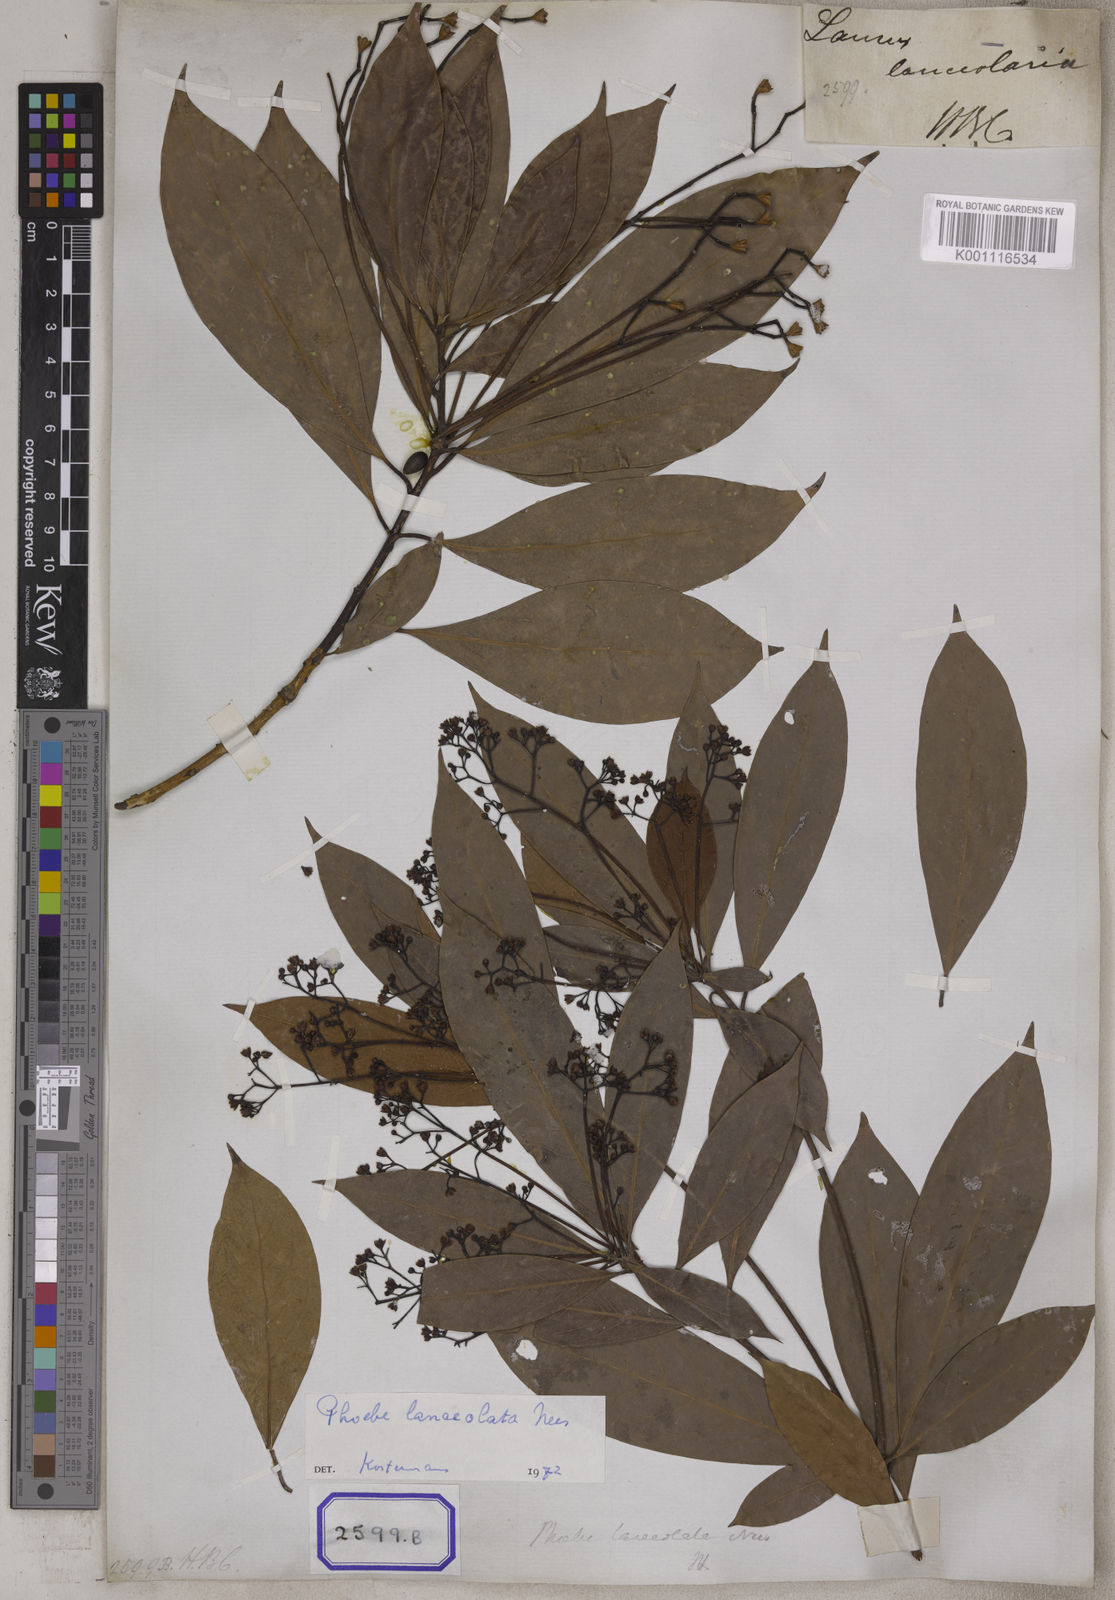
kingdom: Plantae
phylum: Tracheophyta
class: Magnoliopsida
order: Laurales
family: Lauraceae
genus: Laurus
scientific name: Laurus
